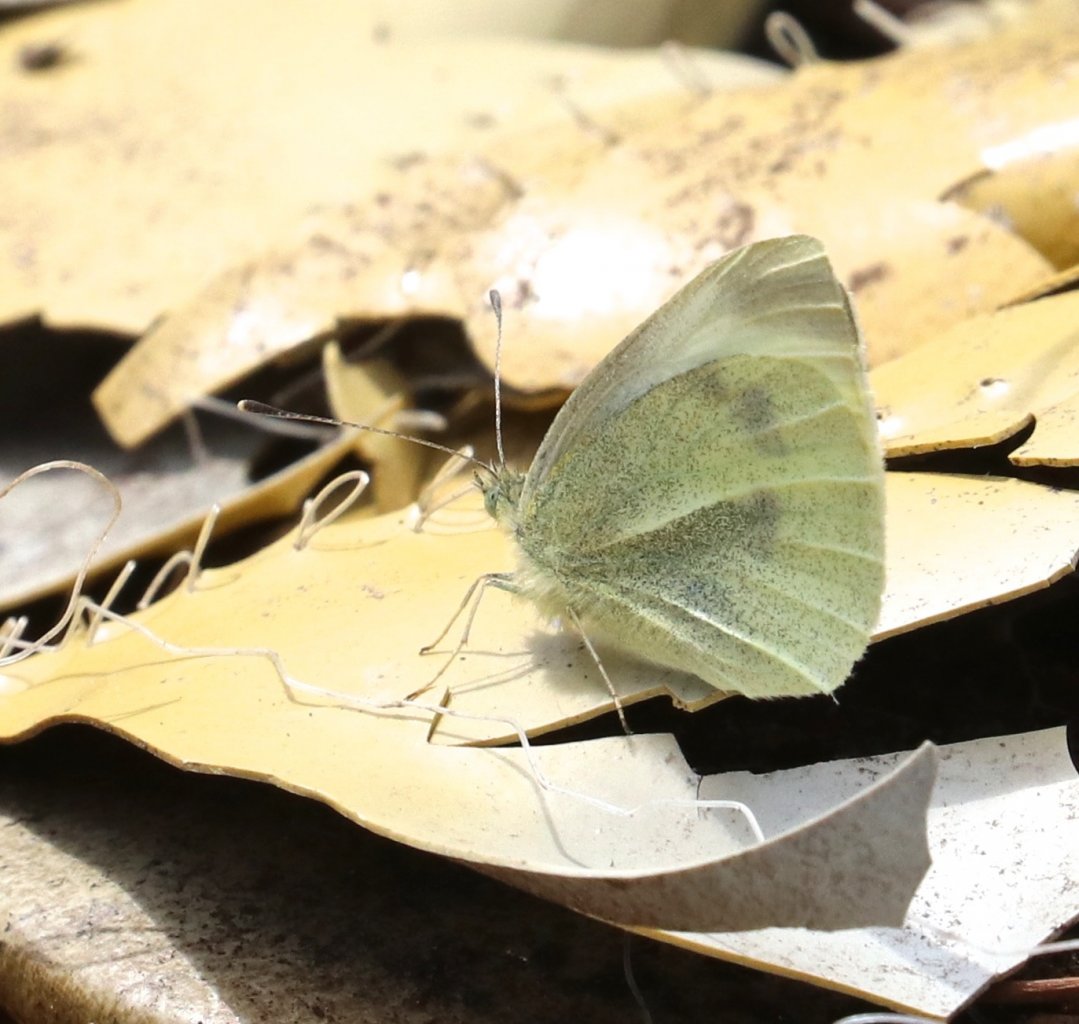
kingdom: Animalia
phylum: Arthropoda
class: Insecta
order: Lepidoptera
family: Pieridae
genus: Pieris
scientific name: Pieris rapae
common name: Cabbage White
